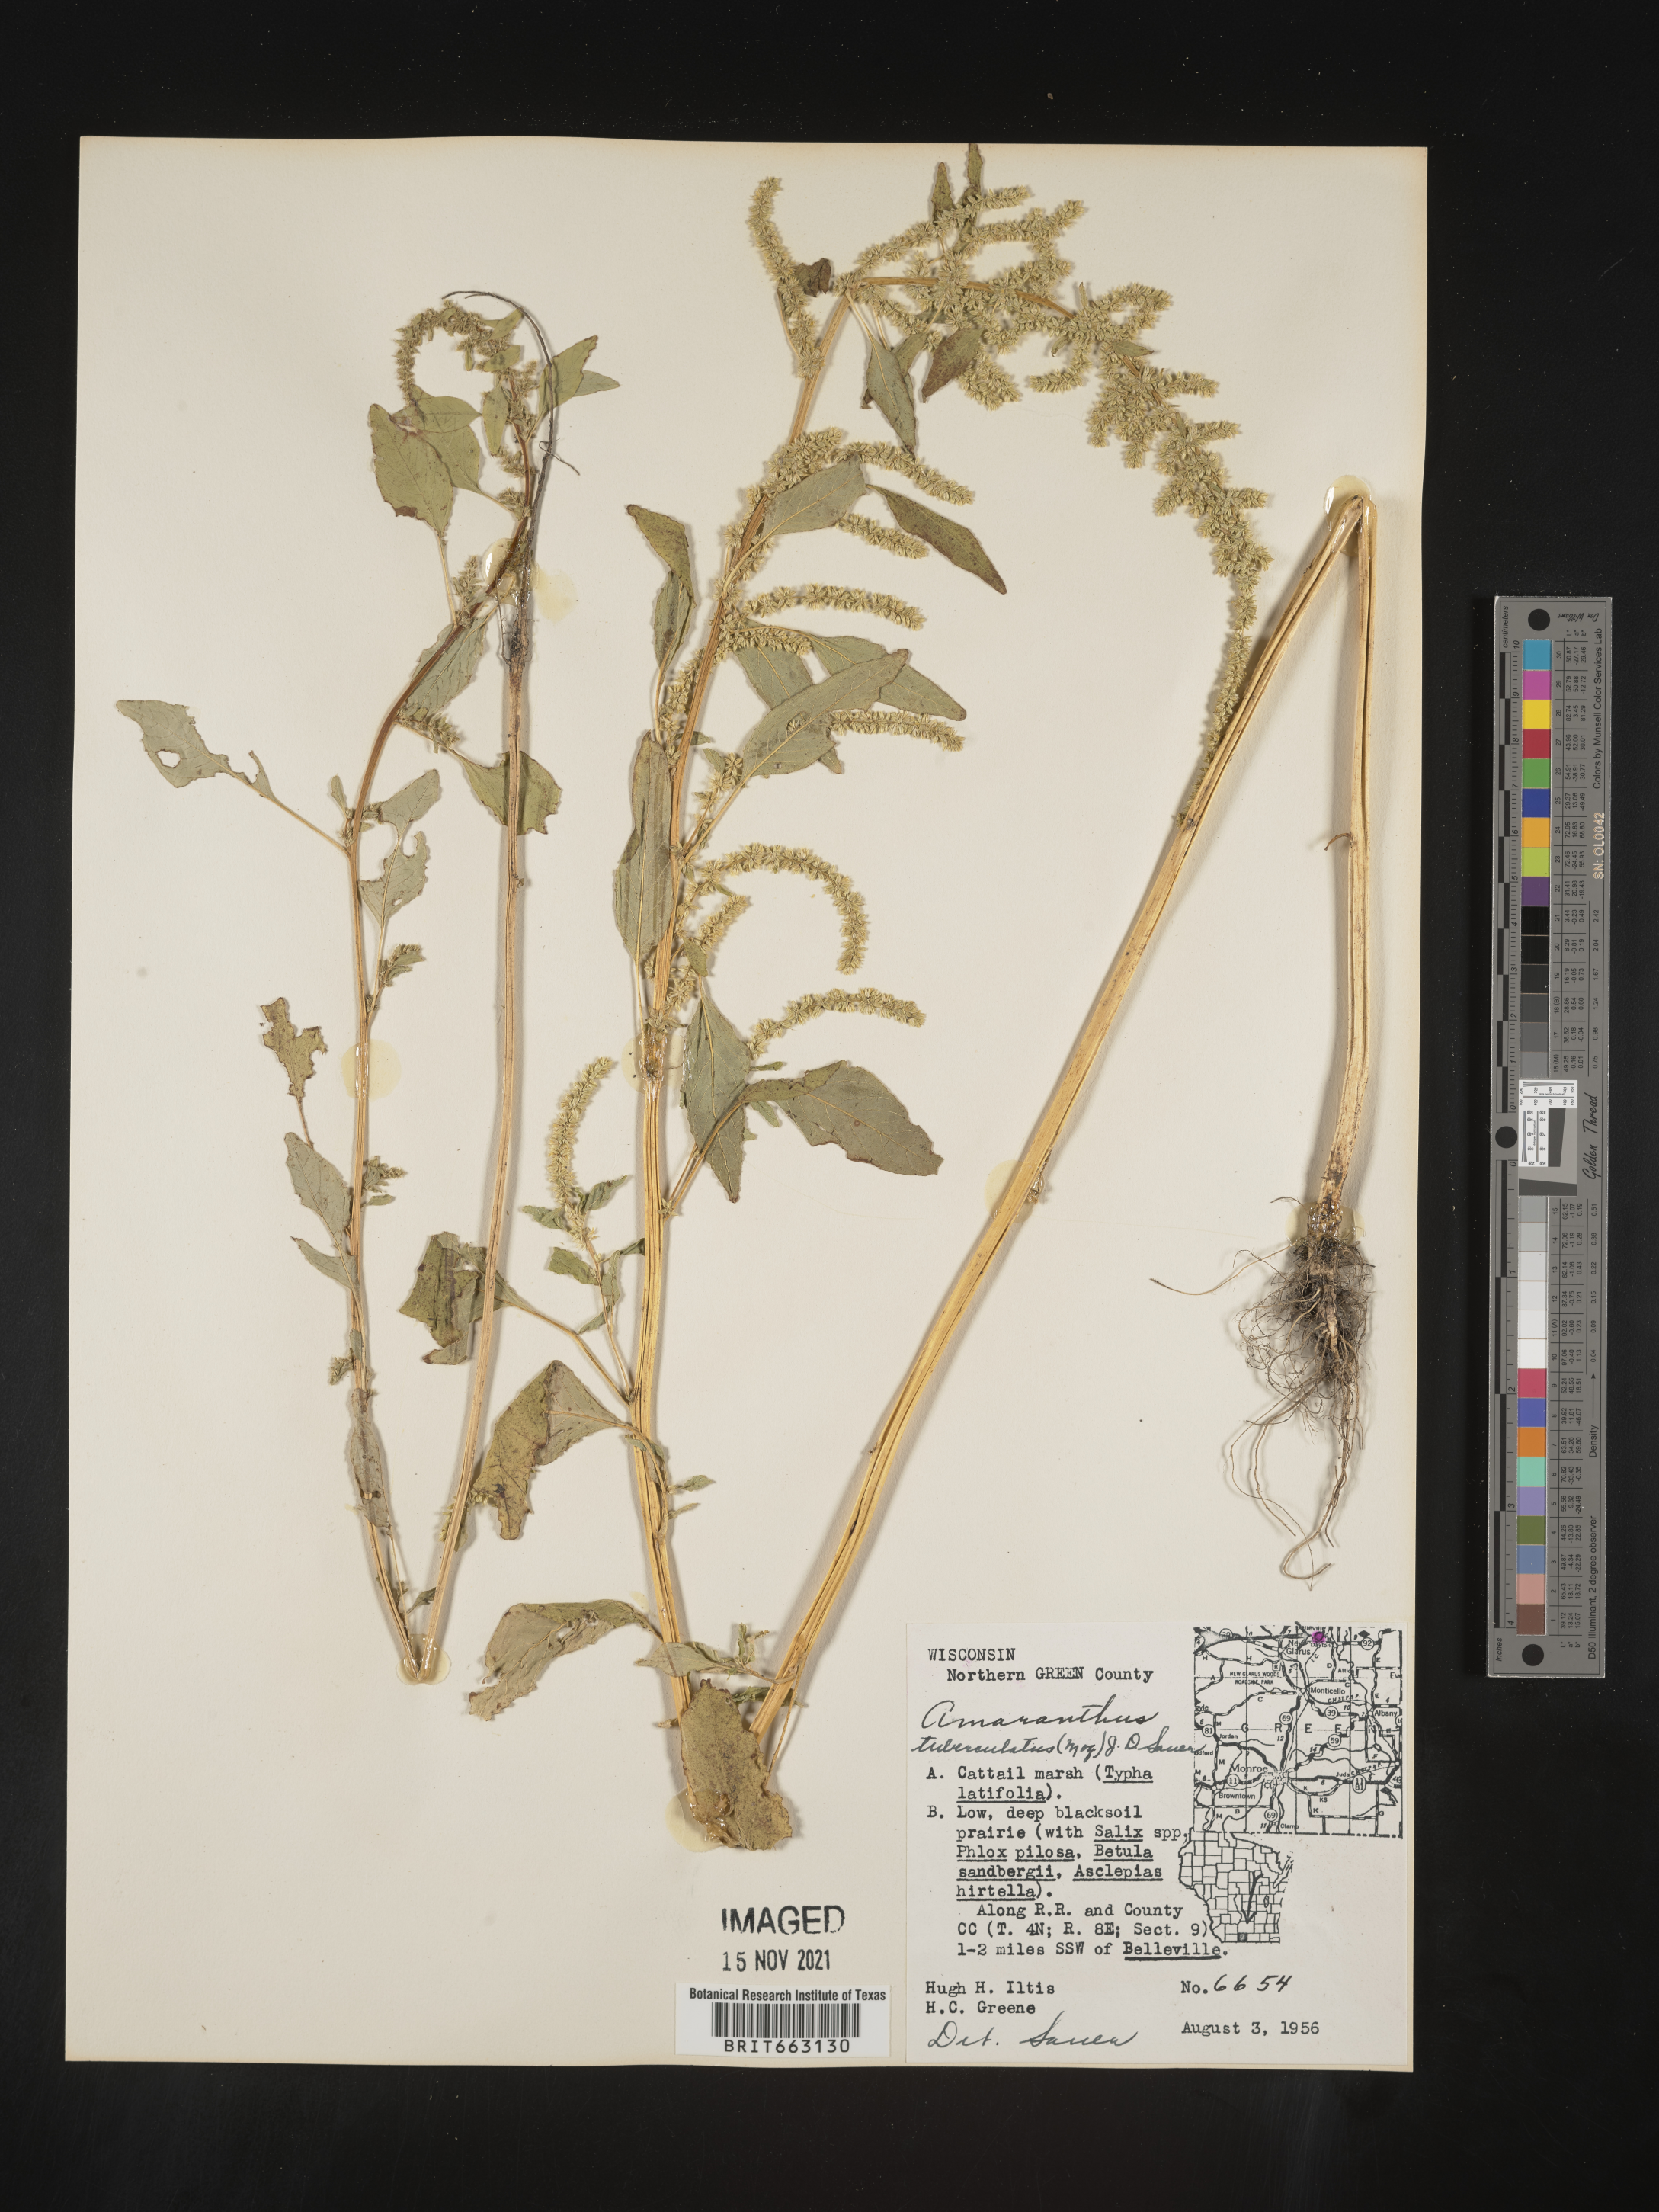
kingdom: Plantae
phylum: Tracheophyta
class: Magnoliopsida
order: Caryophyllales
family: Amaranthaceae
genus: Amaranthus
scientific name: Amaranthus tuberculatus
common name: Rough-fruit amaranth
